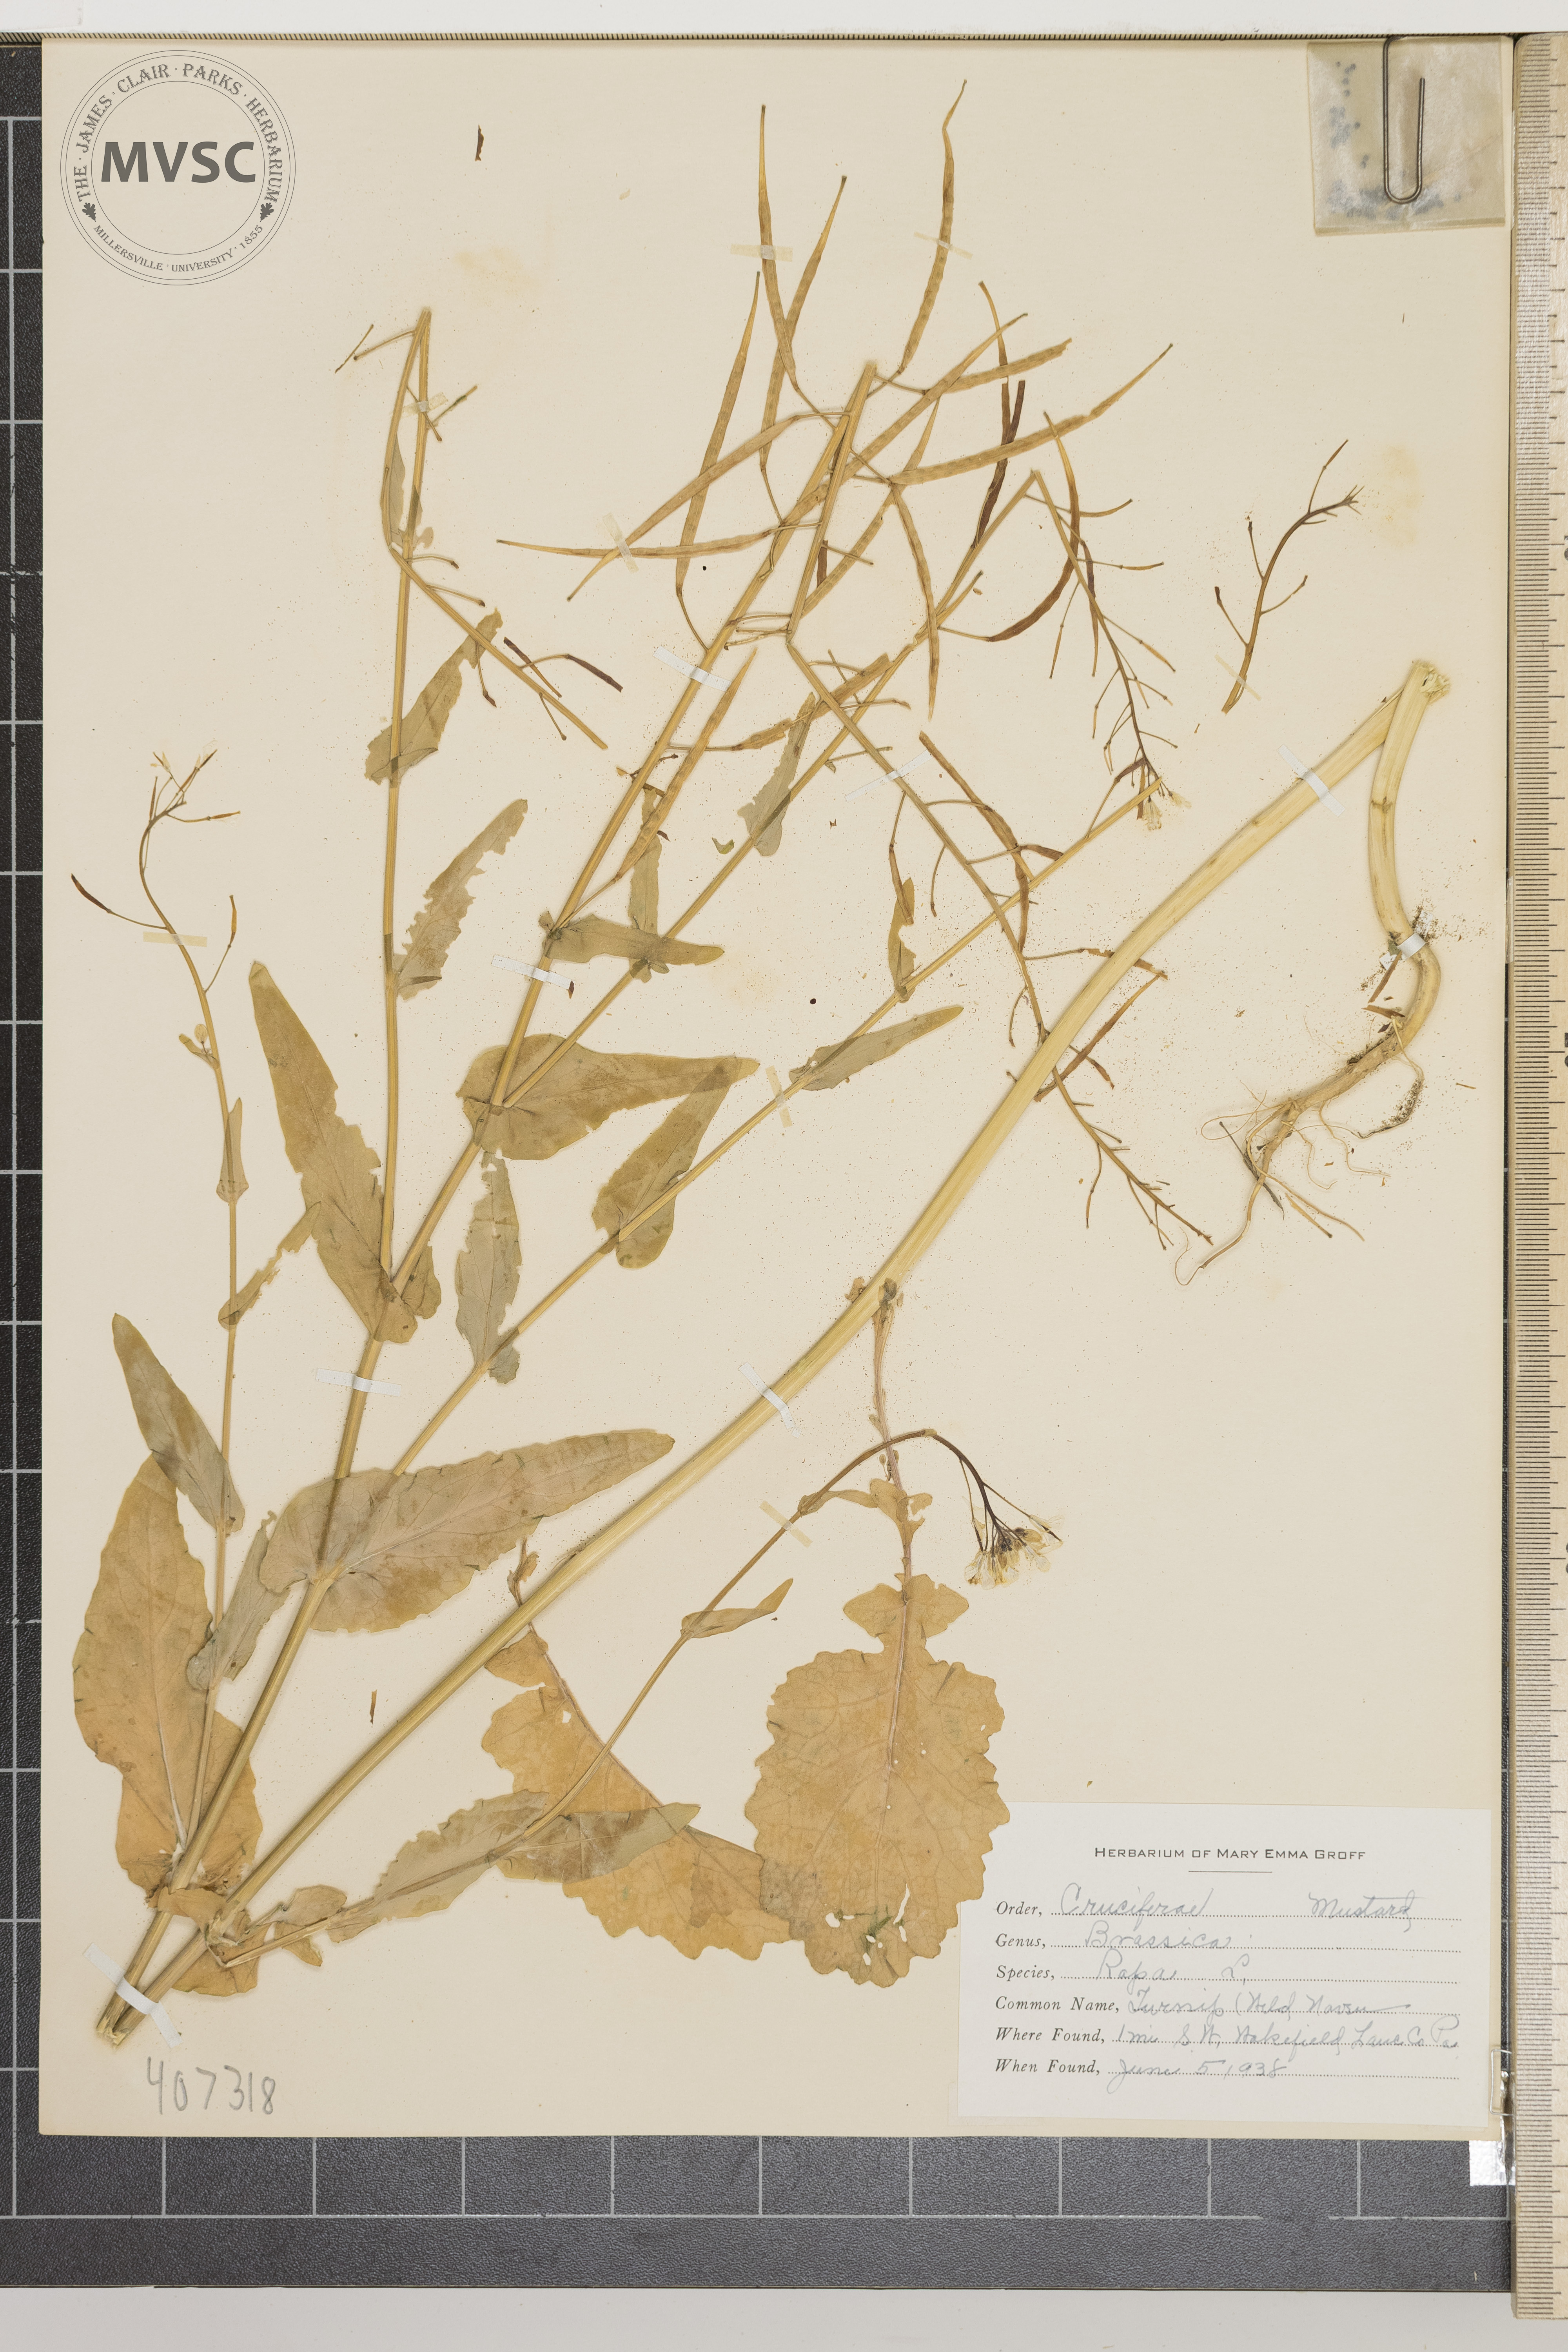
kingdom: Plantae
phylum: Tracheophyta
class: Magnoliopsida
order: Brassicales
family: Brassicaceae
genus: Brassica
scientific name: Brassica rapa
